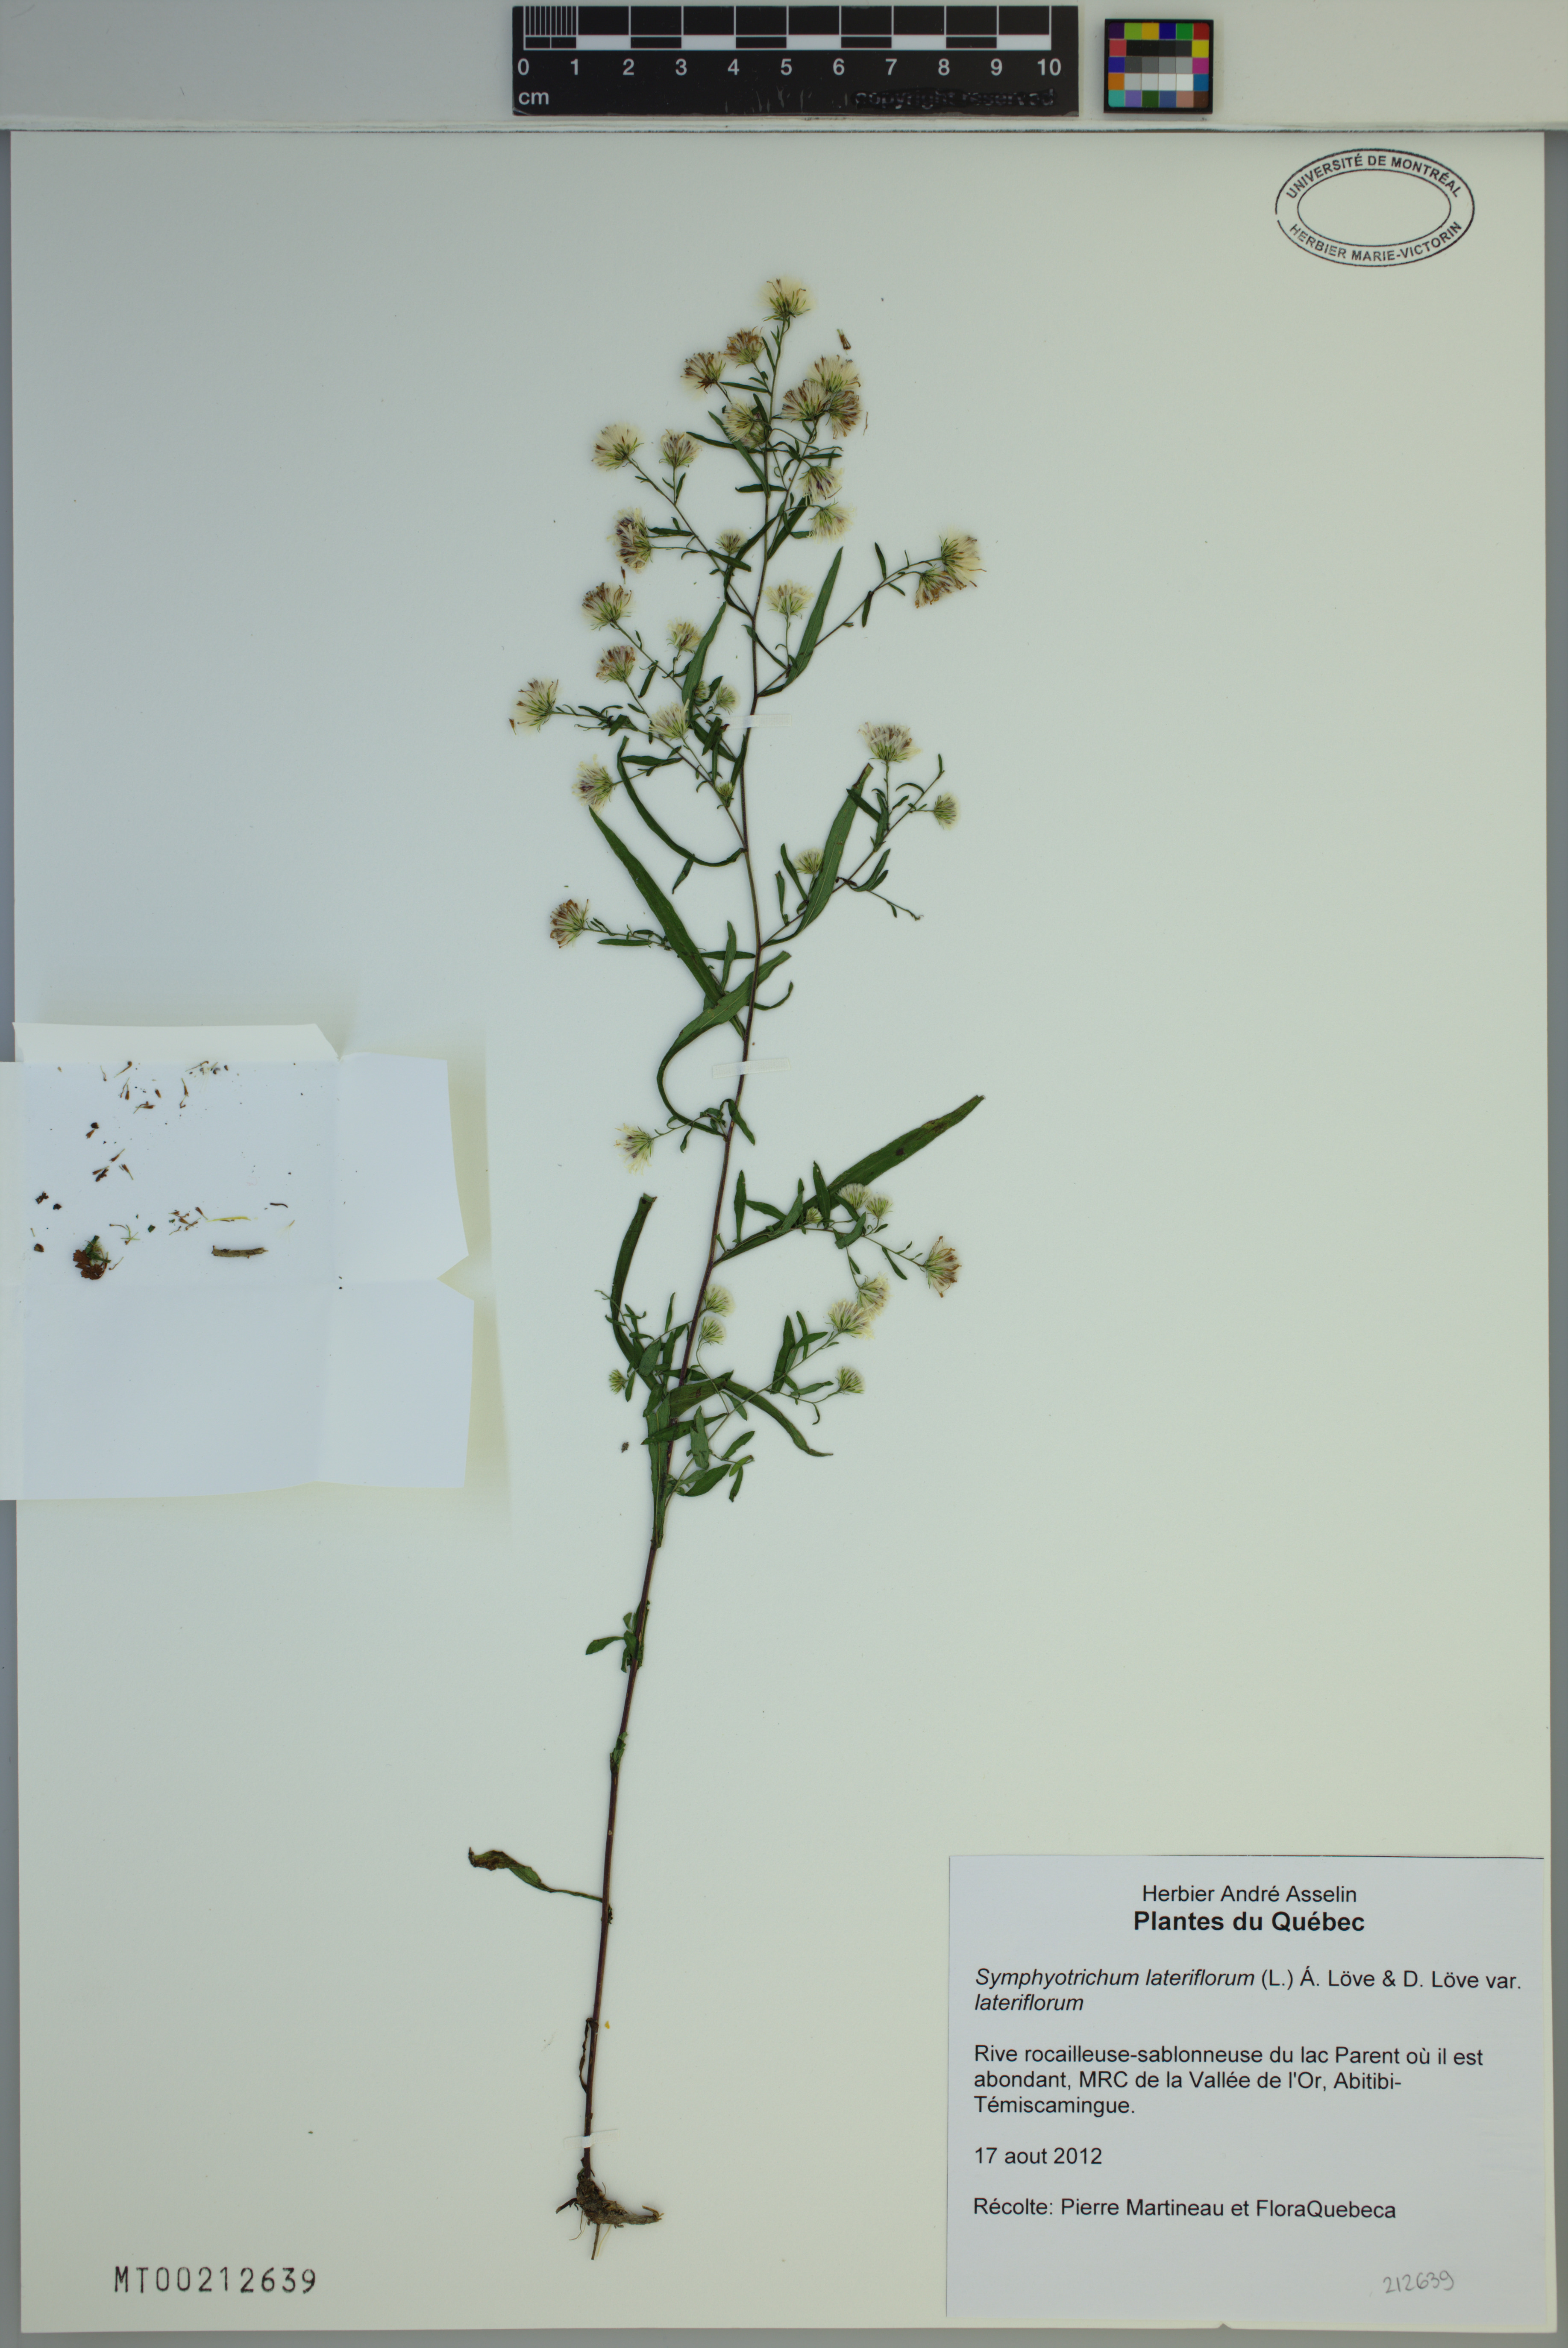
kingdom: Plantae
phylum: Tracheophyta
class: Magnoliopsida
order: Asterales
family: Asteraceae
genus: Symphyotrichum
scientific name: Symphyotrichum ontarionis
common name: Bottomland aster
